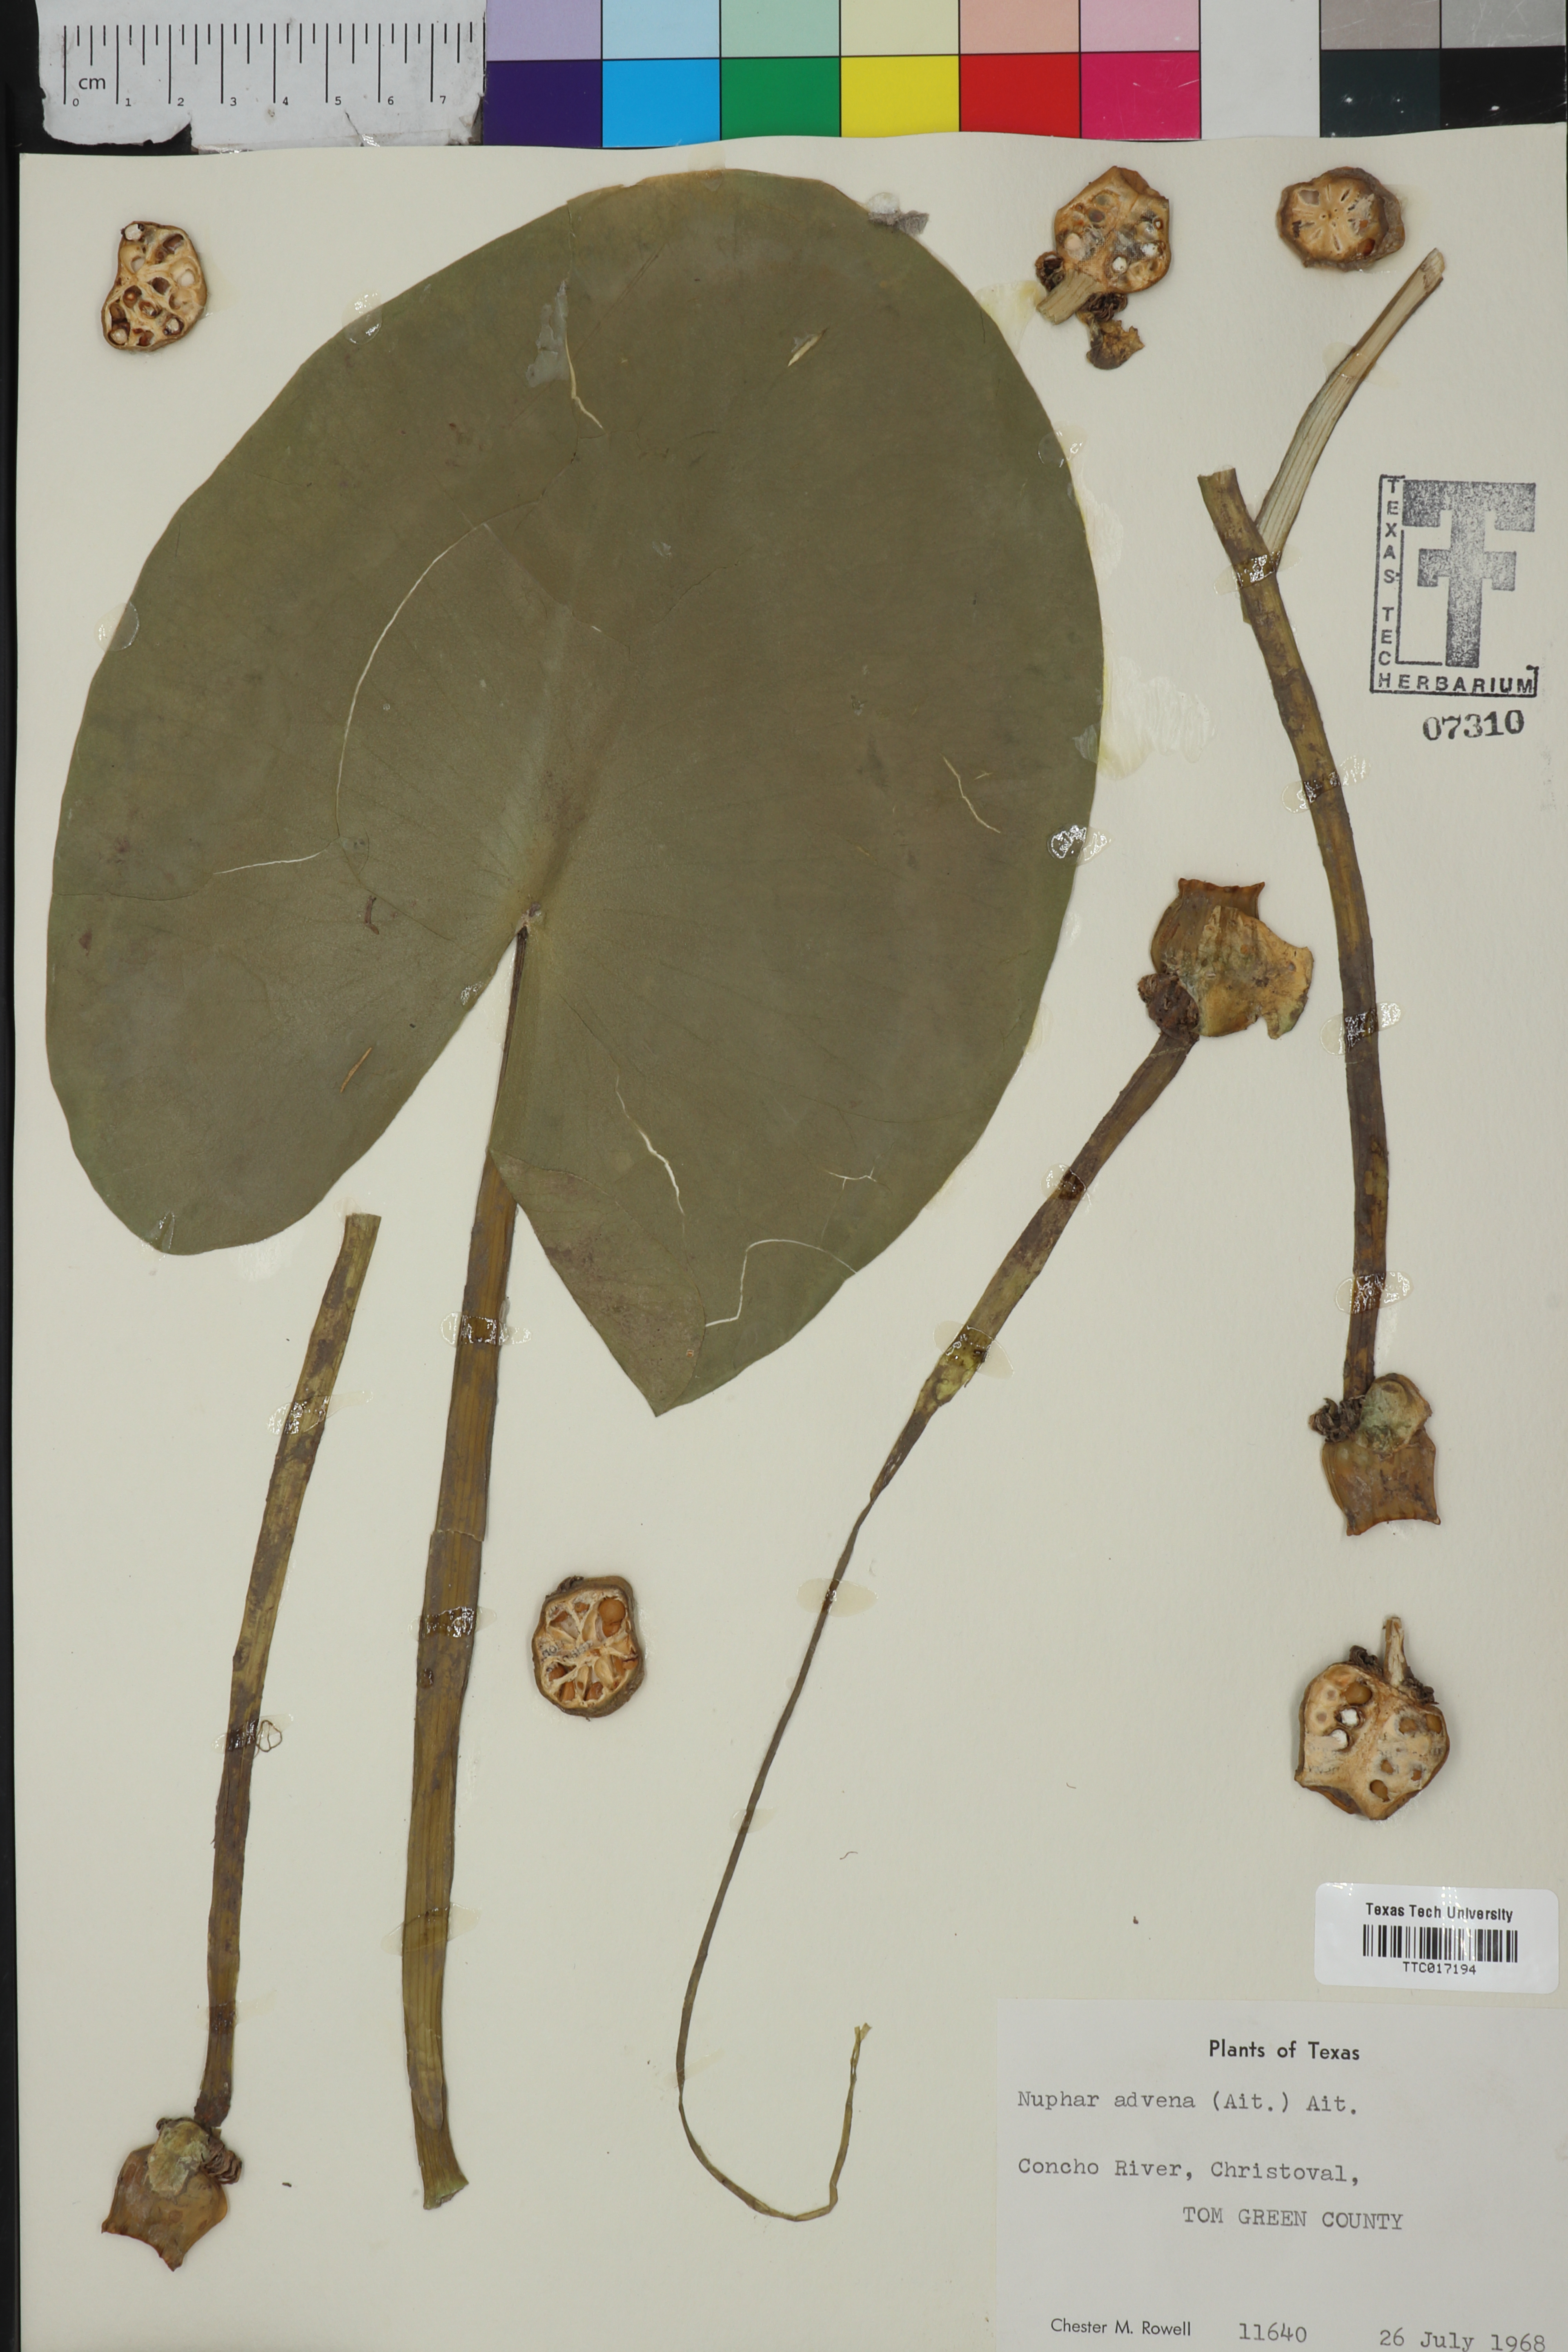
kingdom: Plantae
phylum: Tracheophyta
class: Magnoliopsida
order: Nymphaeales
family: Nymphaeaceae
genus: Nuphar
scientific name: Nuphar advena
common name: Spatter-dock
